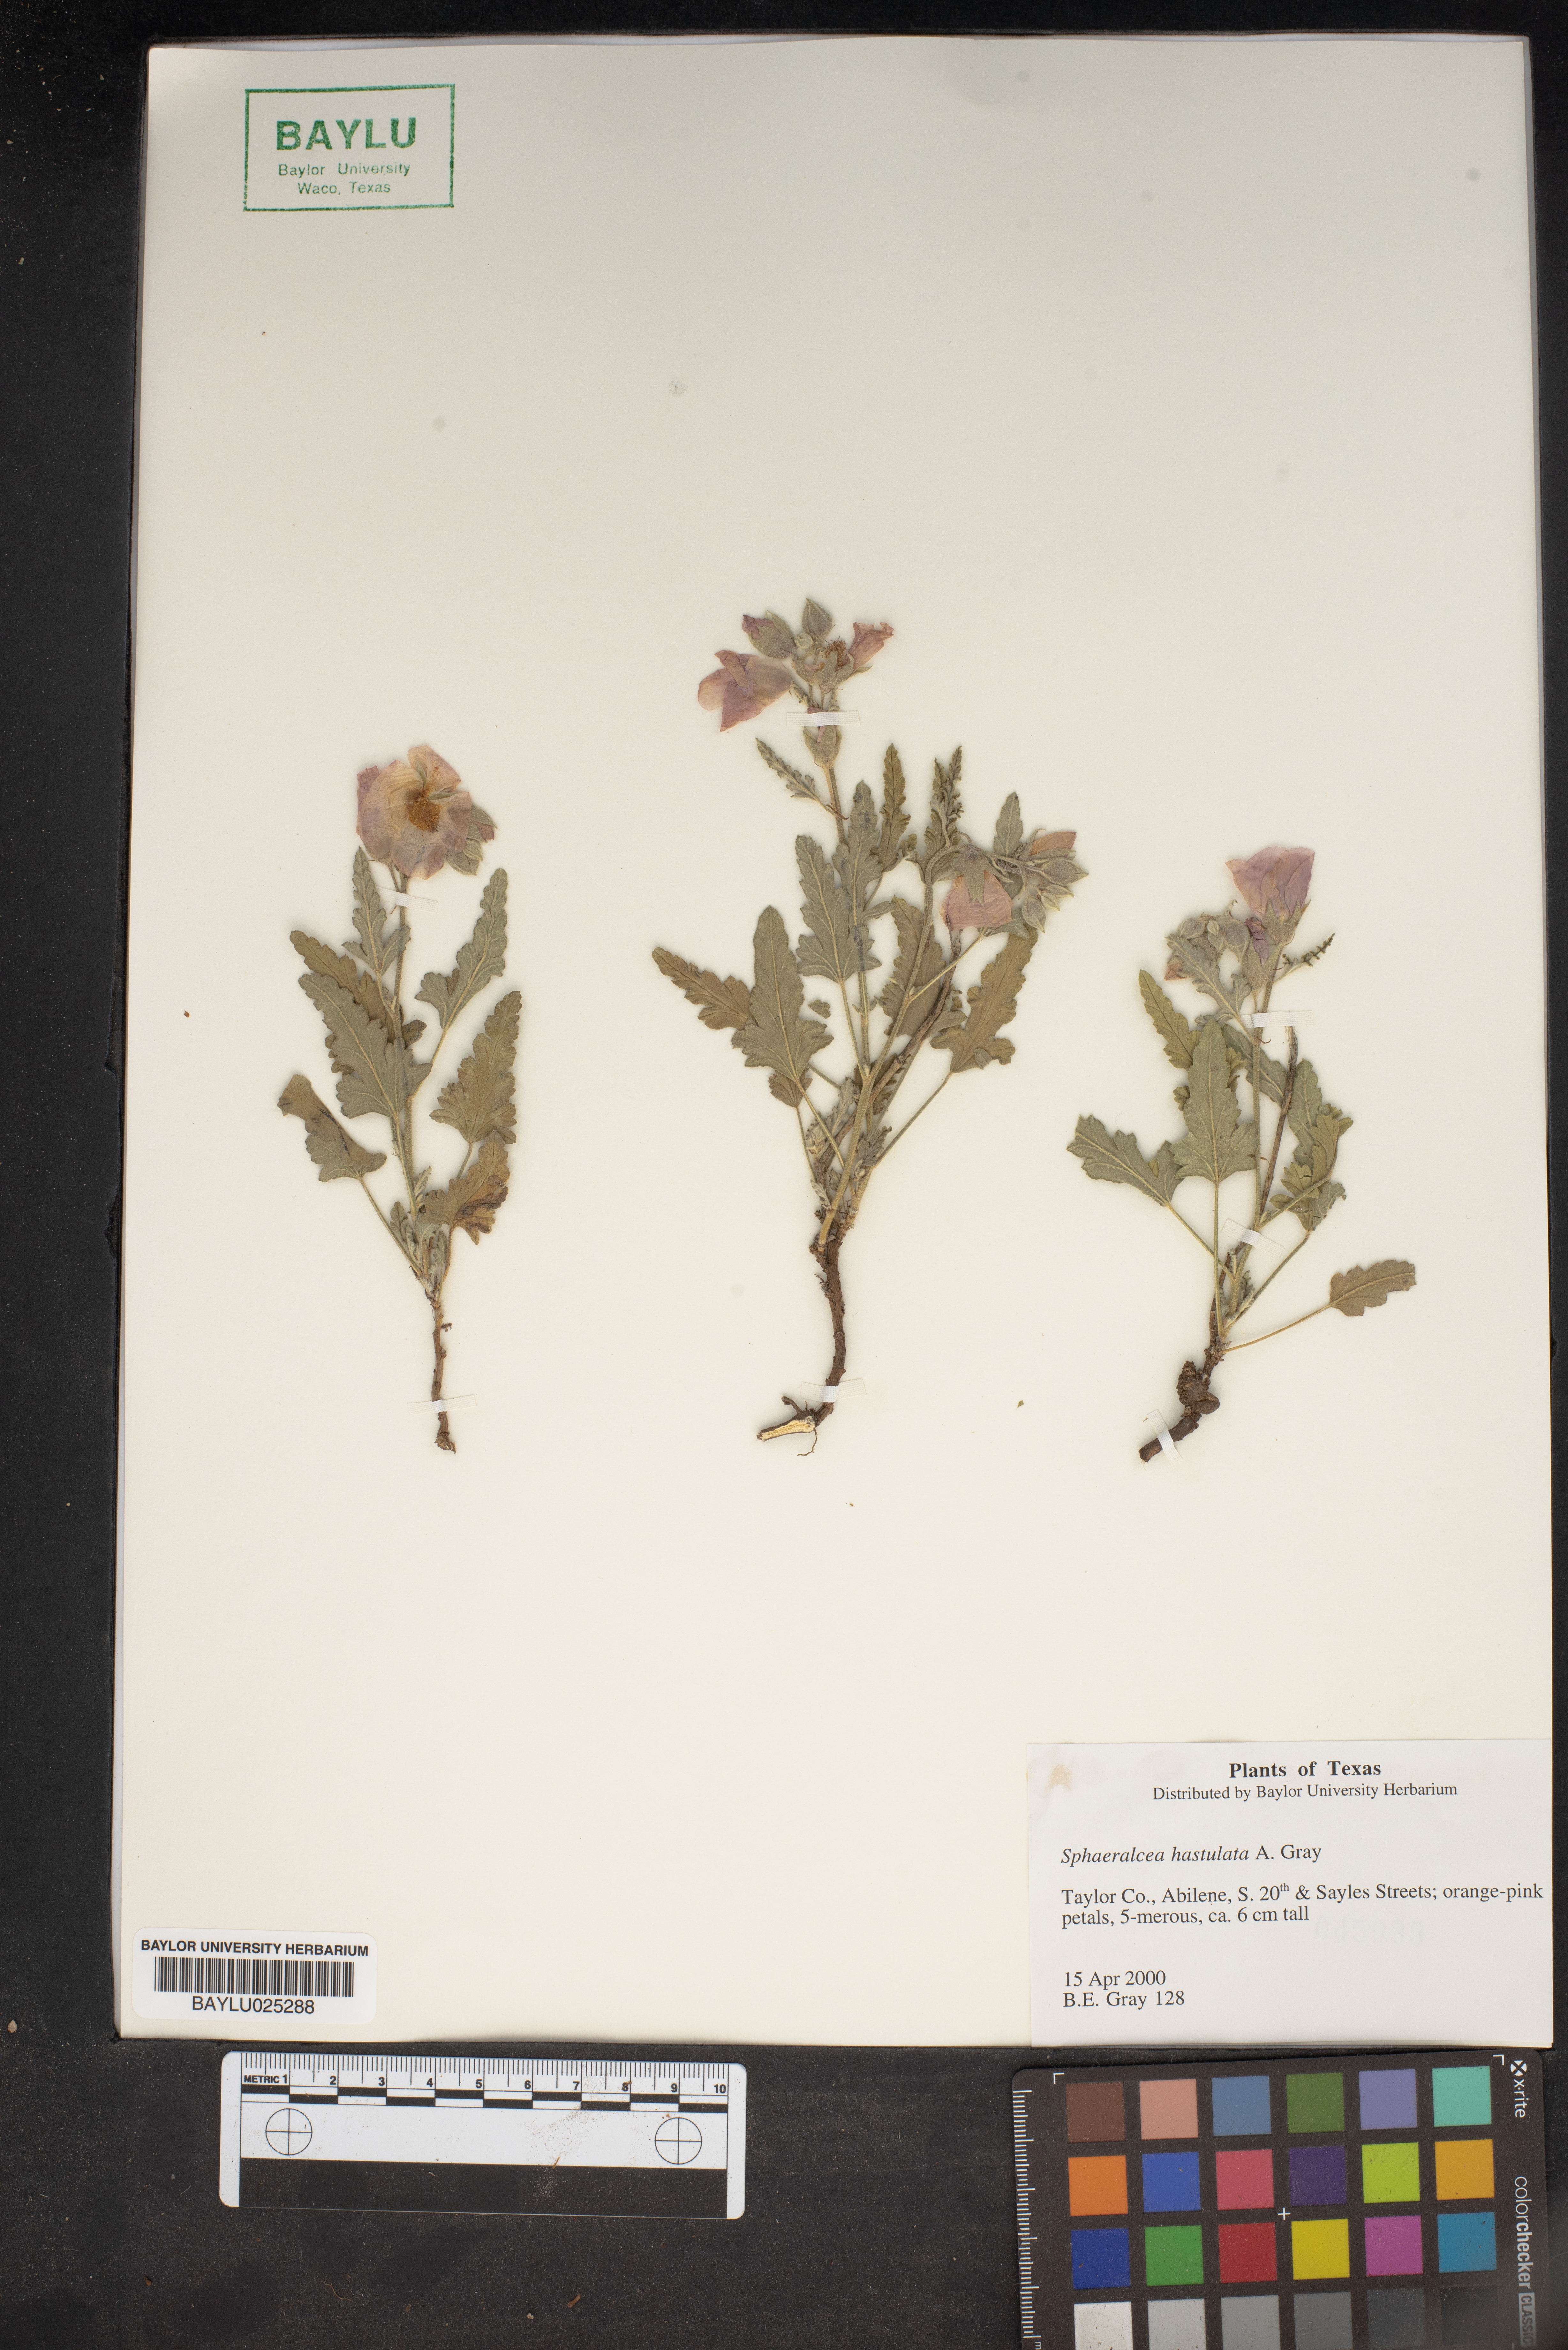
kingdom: Plantae
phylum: Tracheophyta
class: Magnoliopsida
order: Malvales
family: Malvaceae
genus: Sphaeralcea
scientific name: Sphaeralcea hastulata
